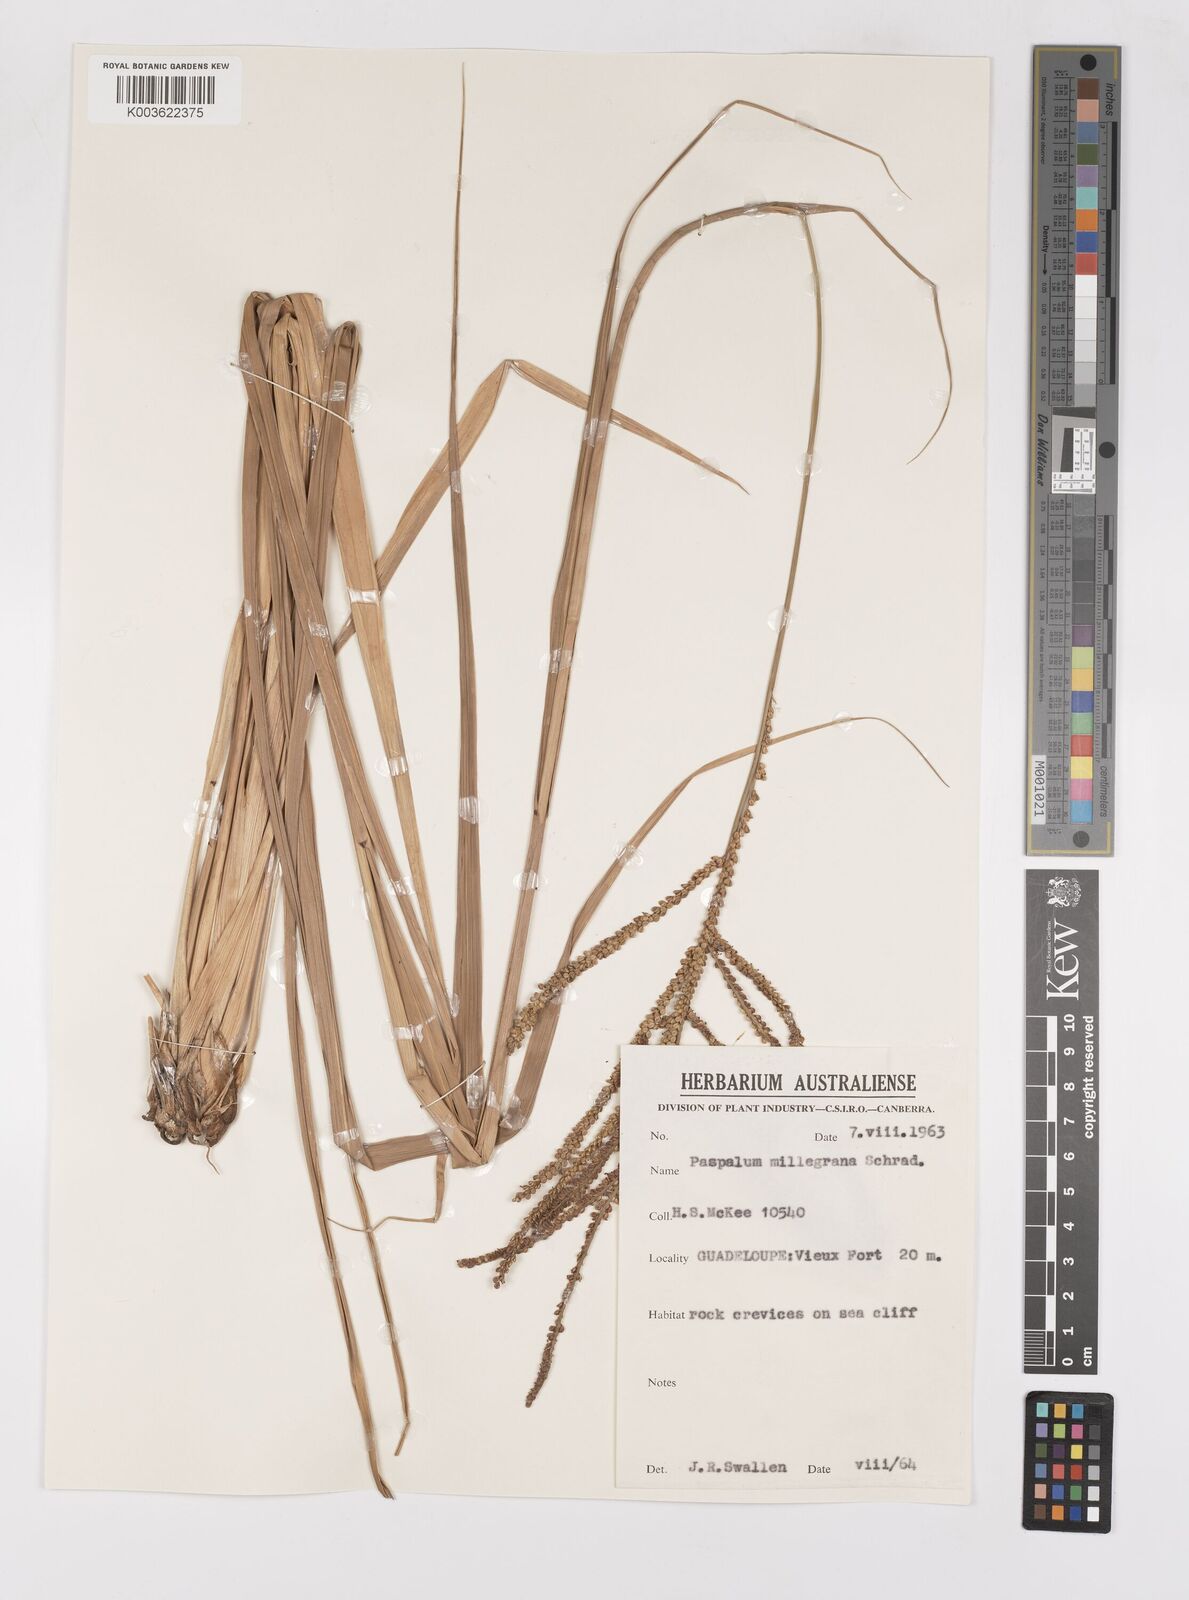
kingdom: Plantae
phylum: Tracheophyta
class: Liliopsida
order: Poales
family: Poaceae
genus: Paspalum
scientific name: Paspalum millegranum
